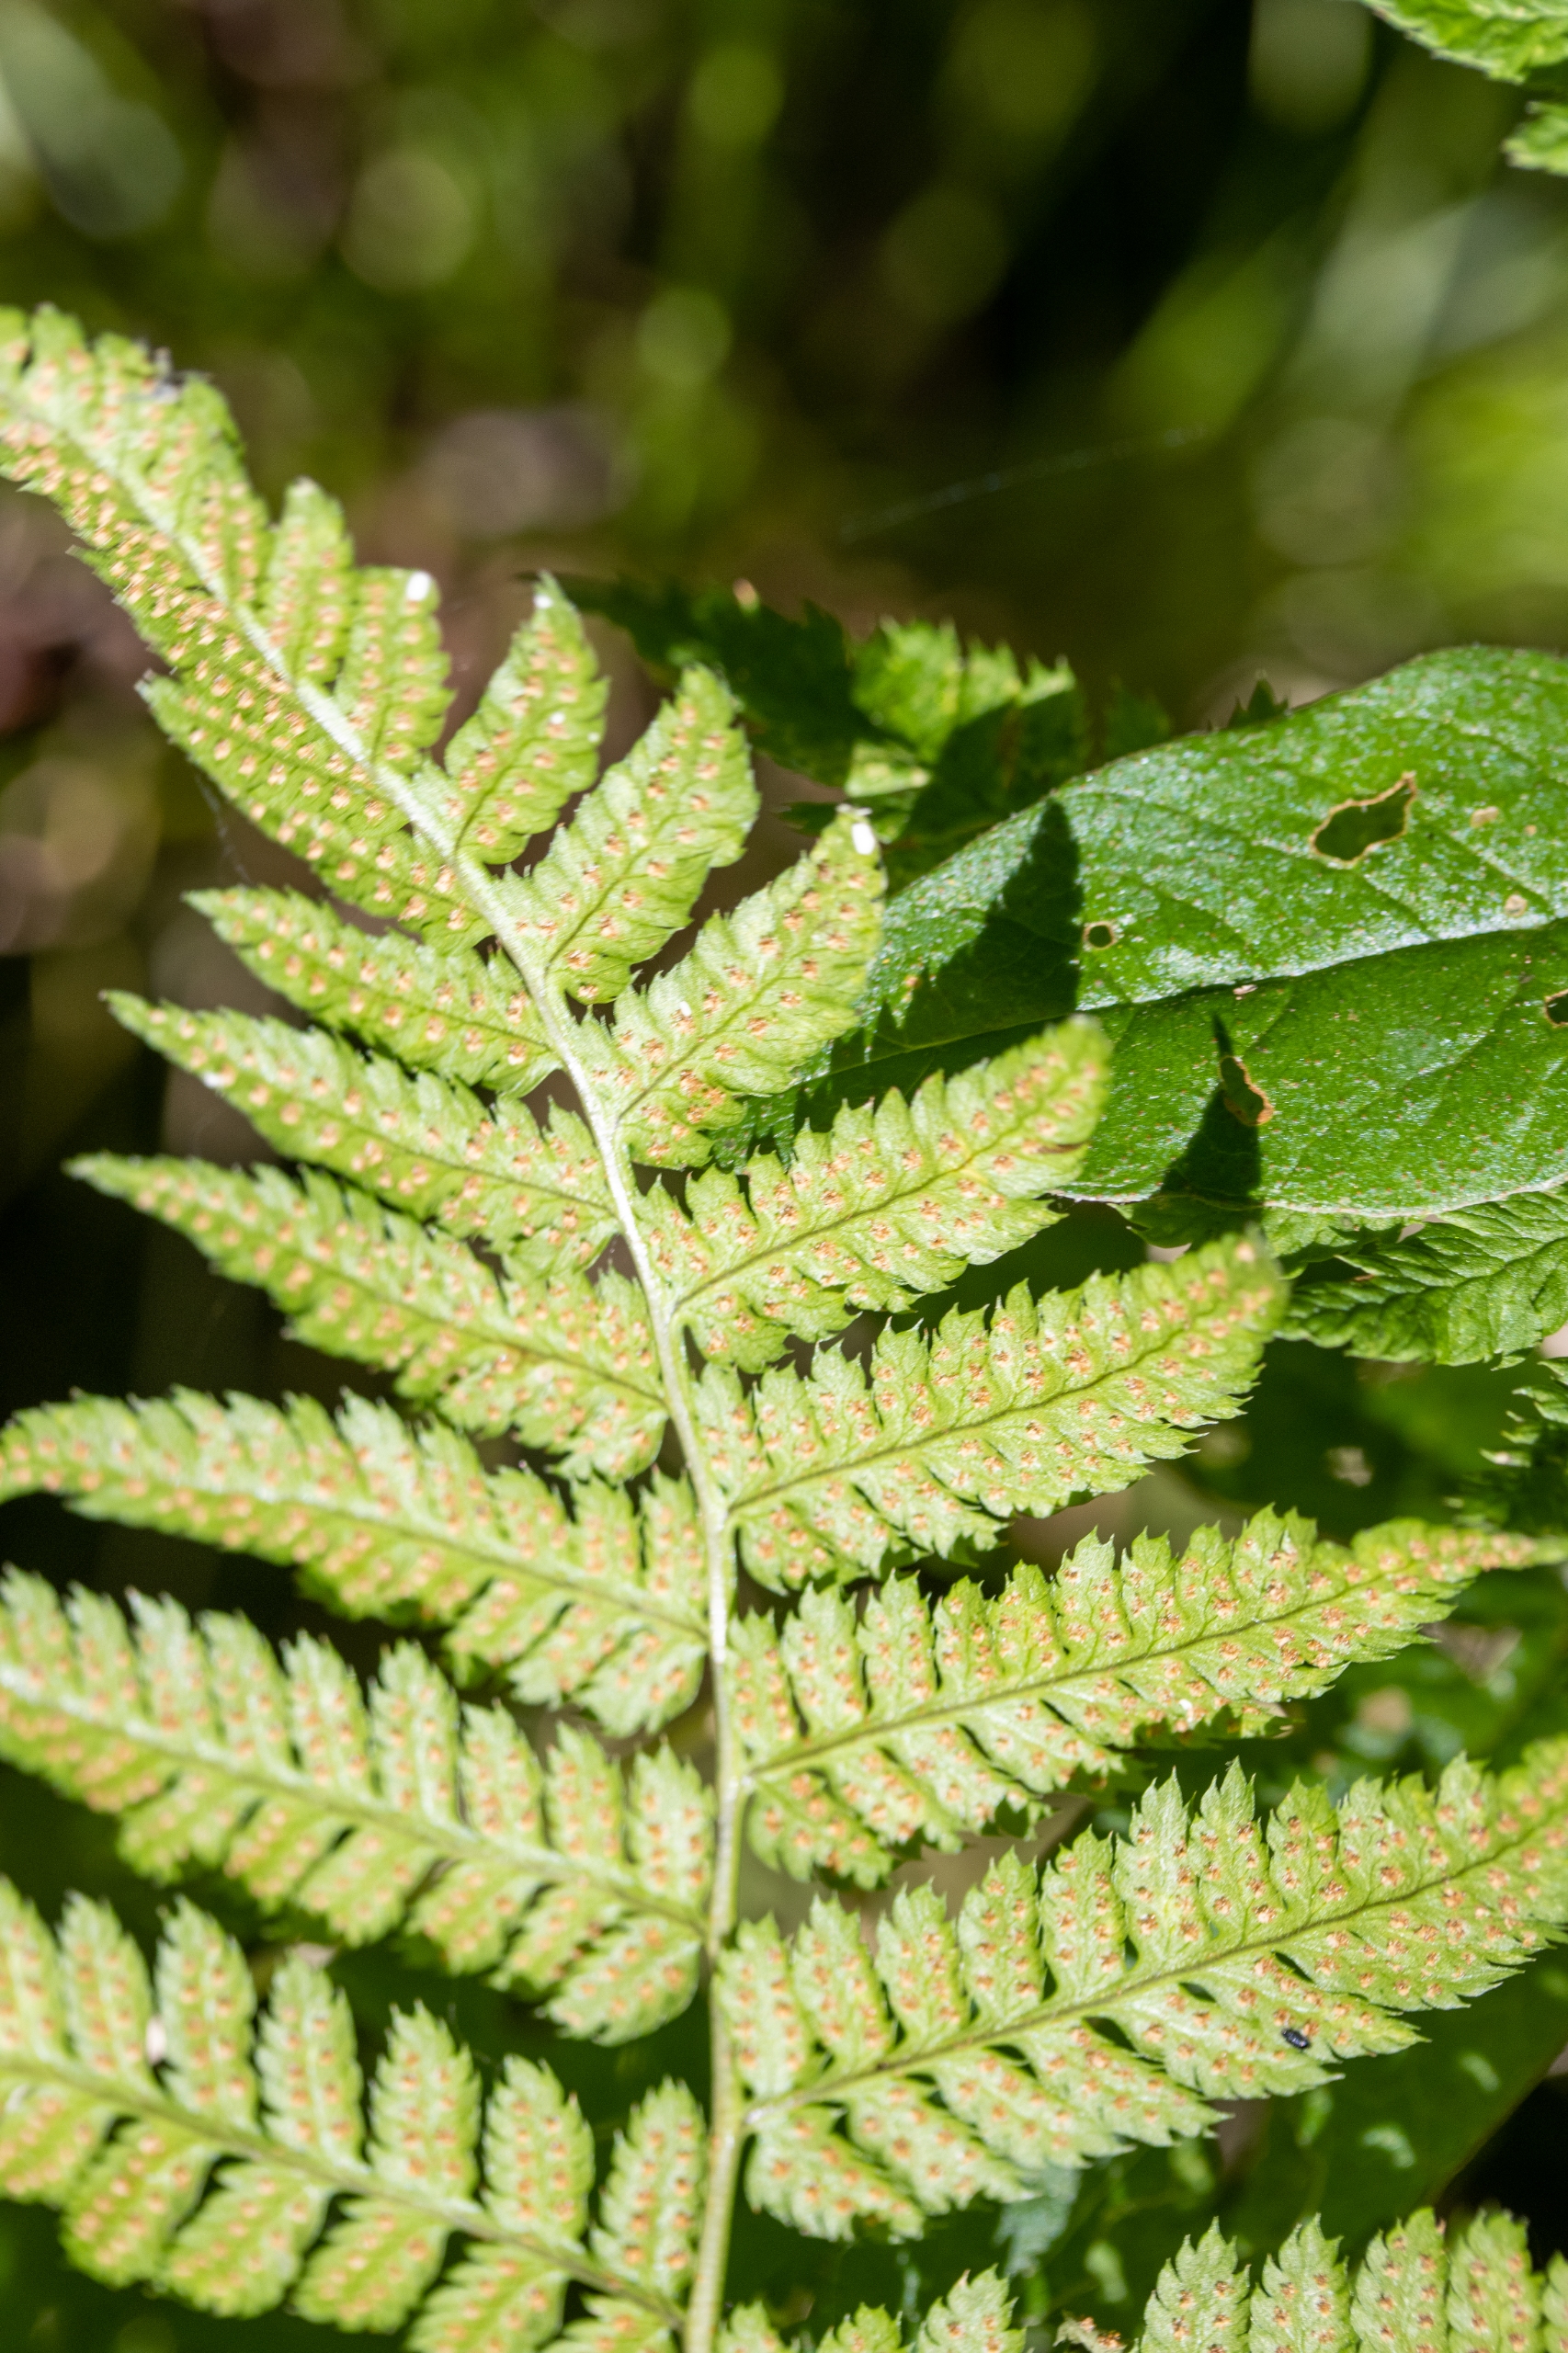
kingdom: Plantae
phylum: Tracheophyta
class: Polypodiopsida
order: Polypodiales
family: Dryopteridaceae
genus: Dryopteris
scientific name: Dryopteris carthusiana
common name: Smalbladet mangeløv
